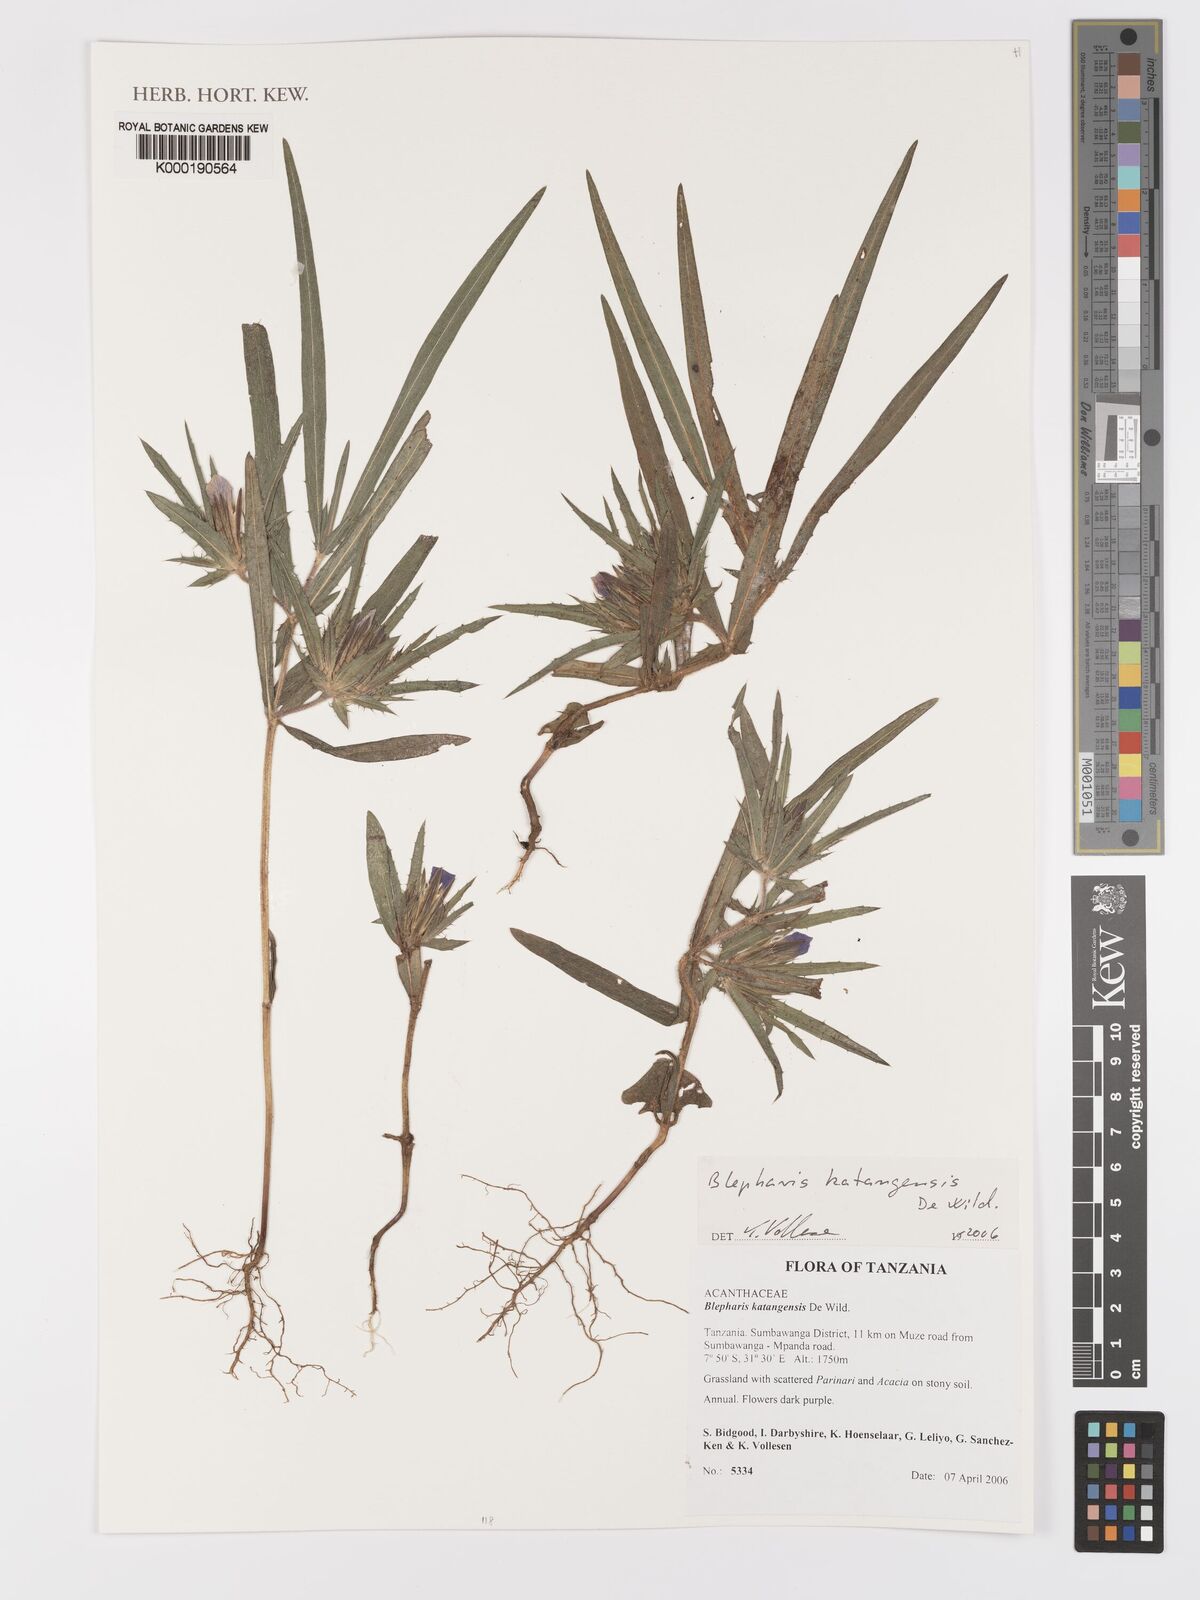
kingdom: Plantae
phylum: Tracheophyta
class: Magnoliopsida
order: Lamiales
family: Acanthaceae
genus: Blepharis
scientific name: Blepharis katangensis
